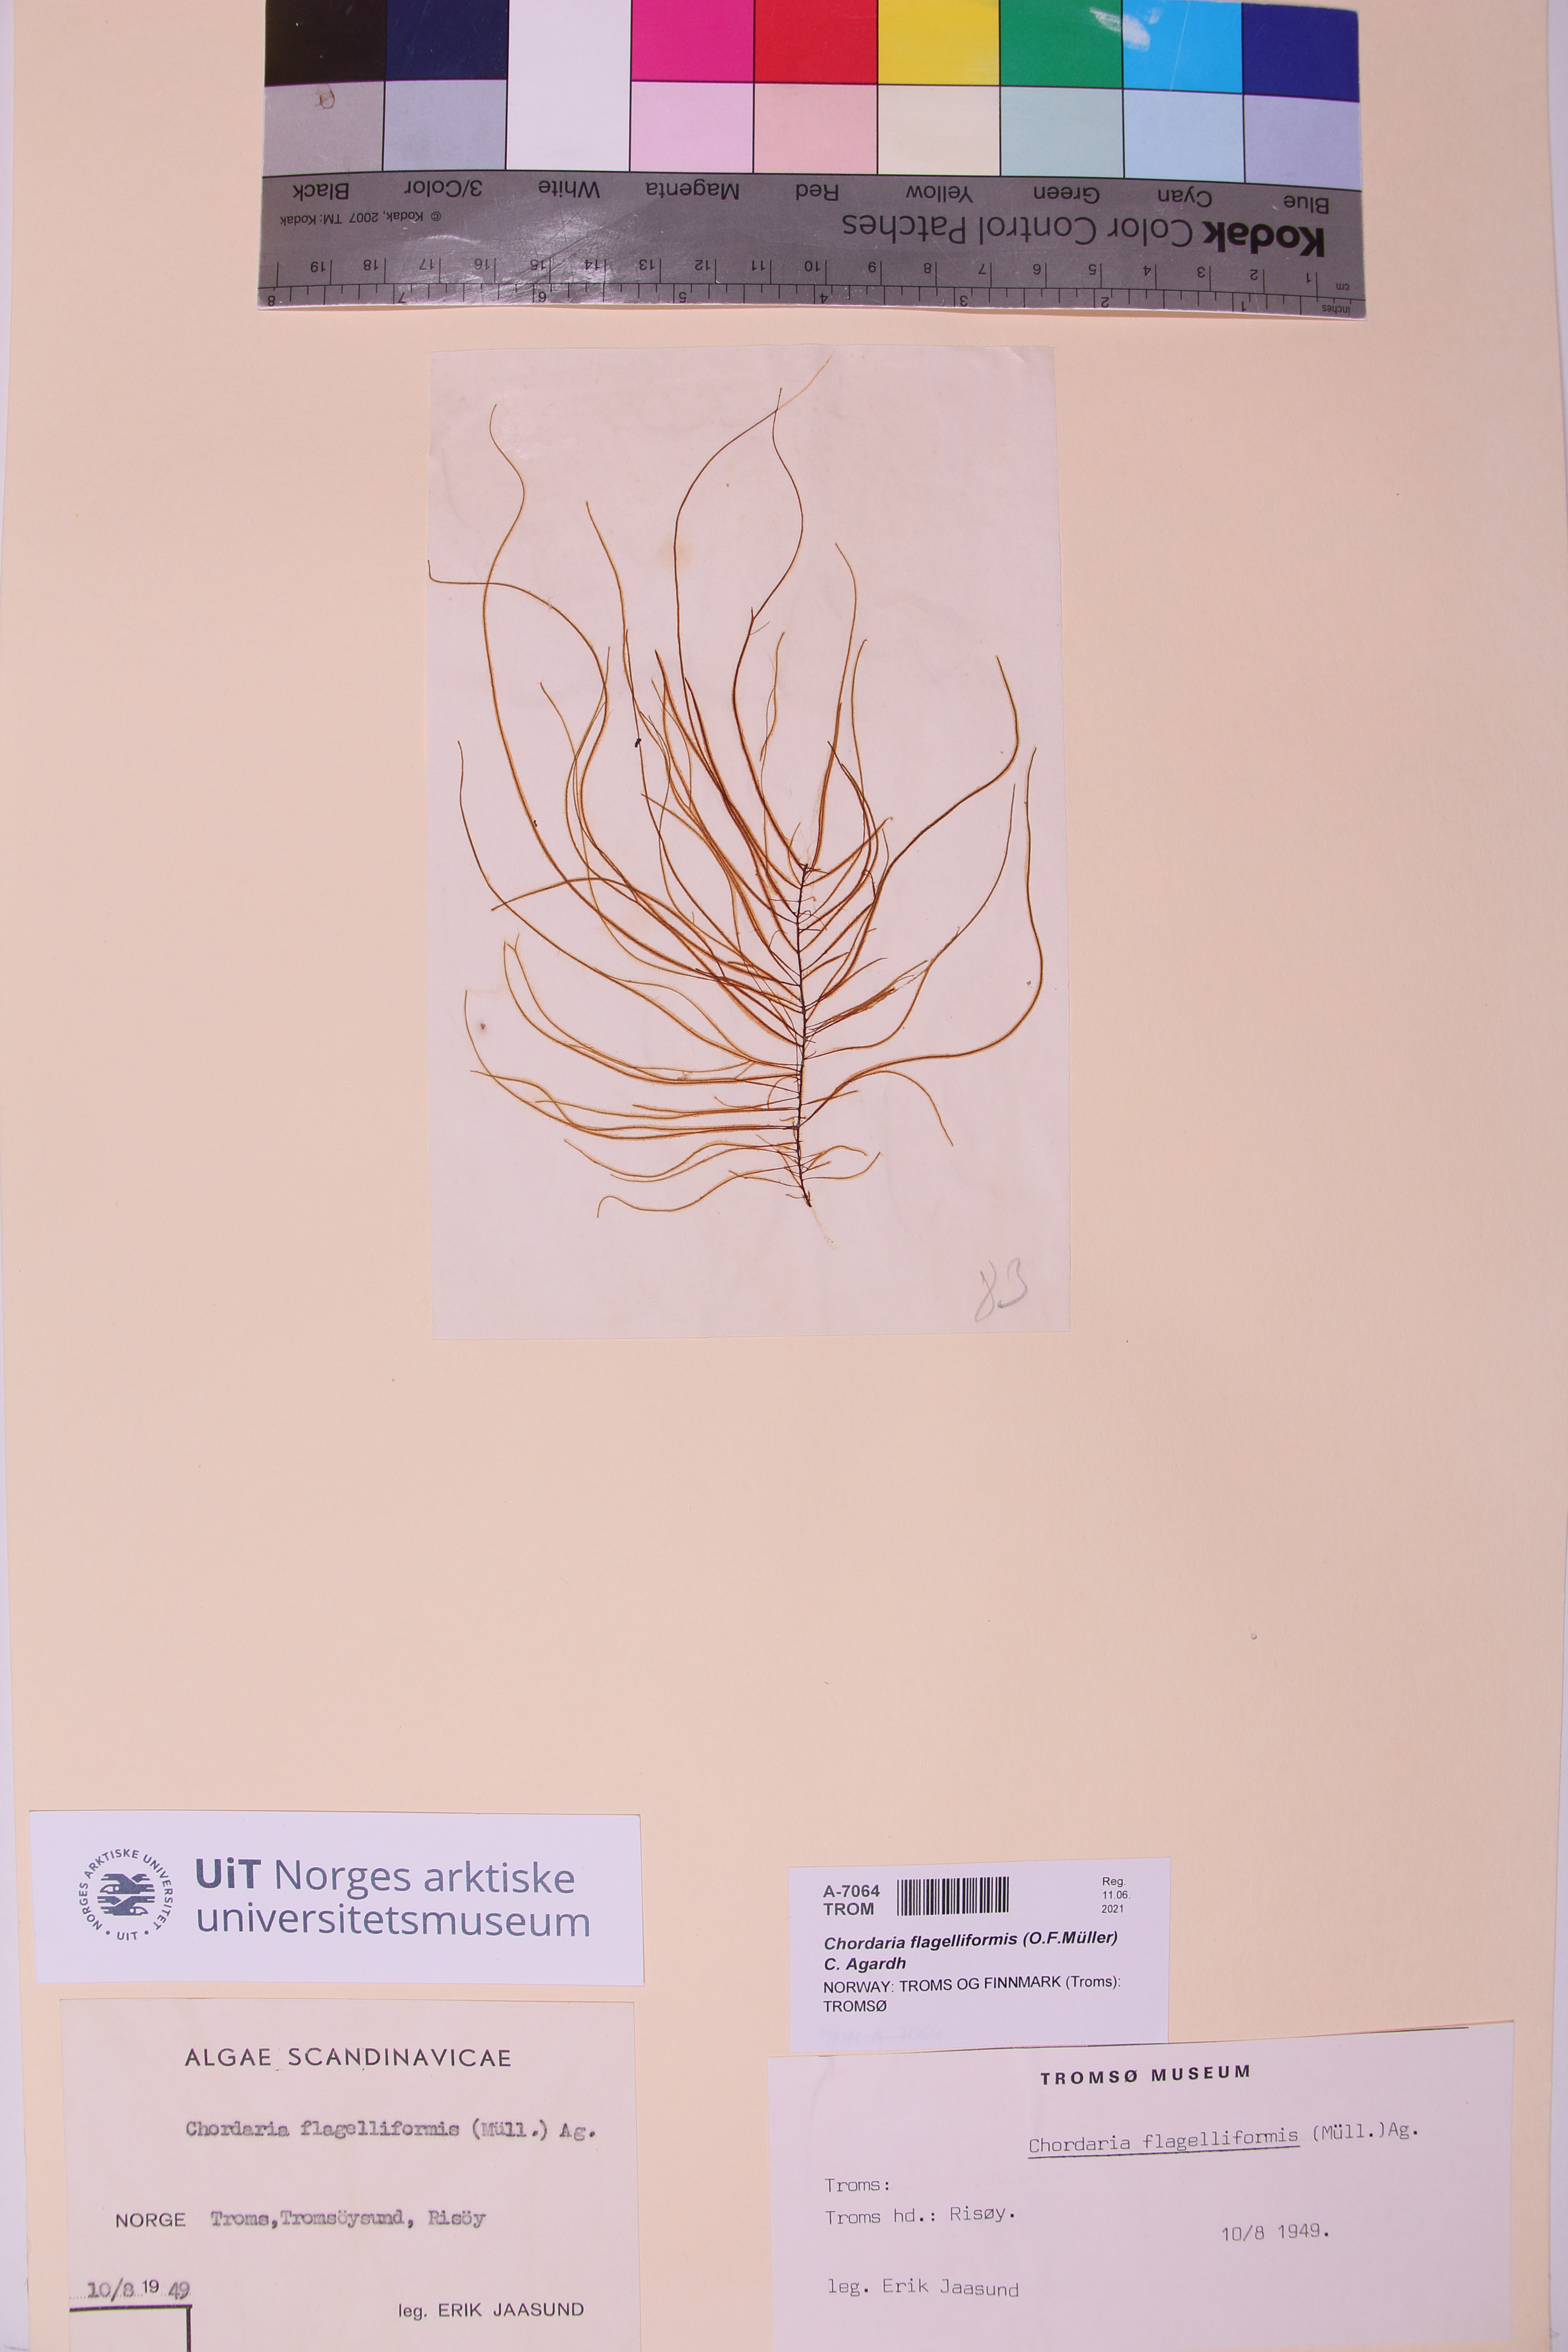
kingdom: Chromista
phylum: Ochrophyta
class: Phaeophyceae
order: Ectocarpales
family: Chordariaceae
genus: Chordaria
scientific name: Chordaria flagelliformis
